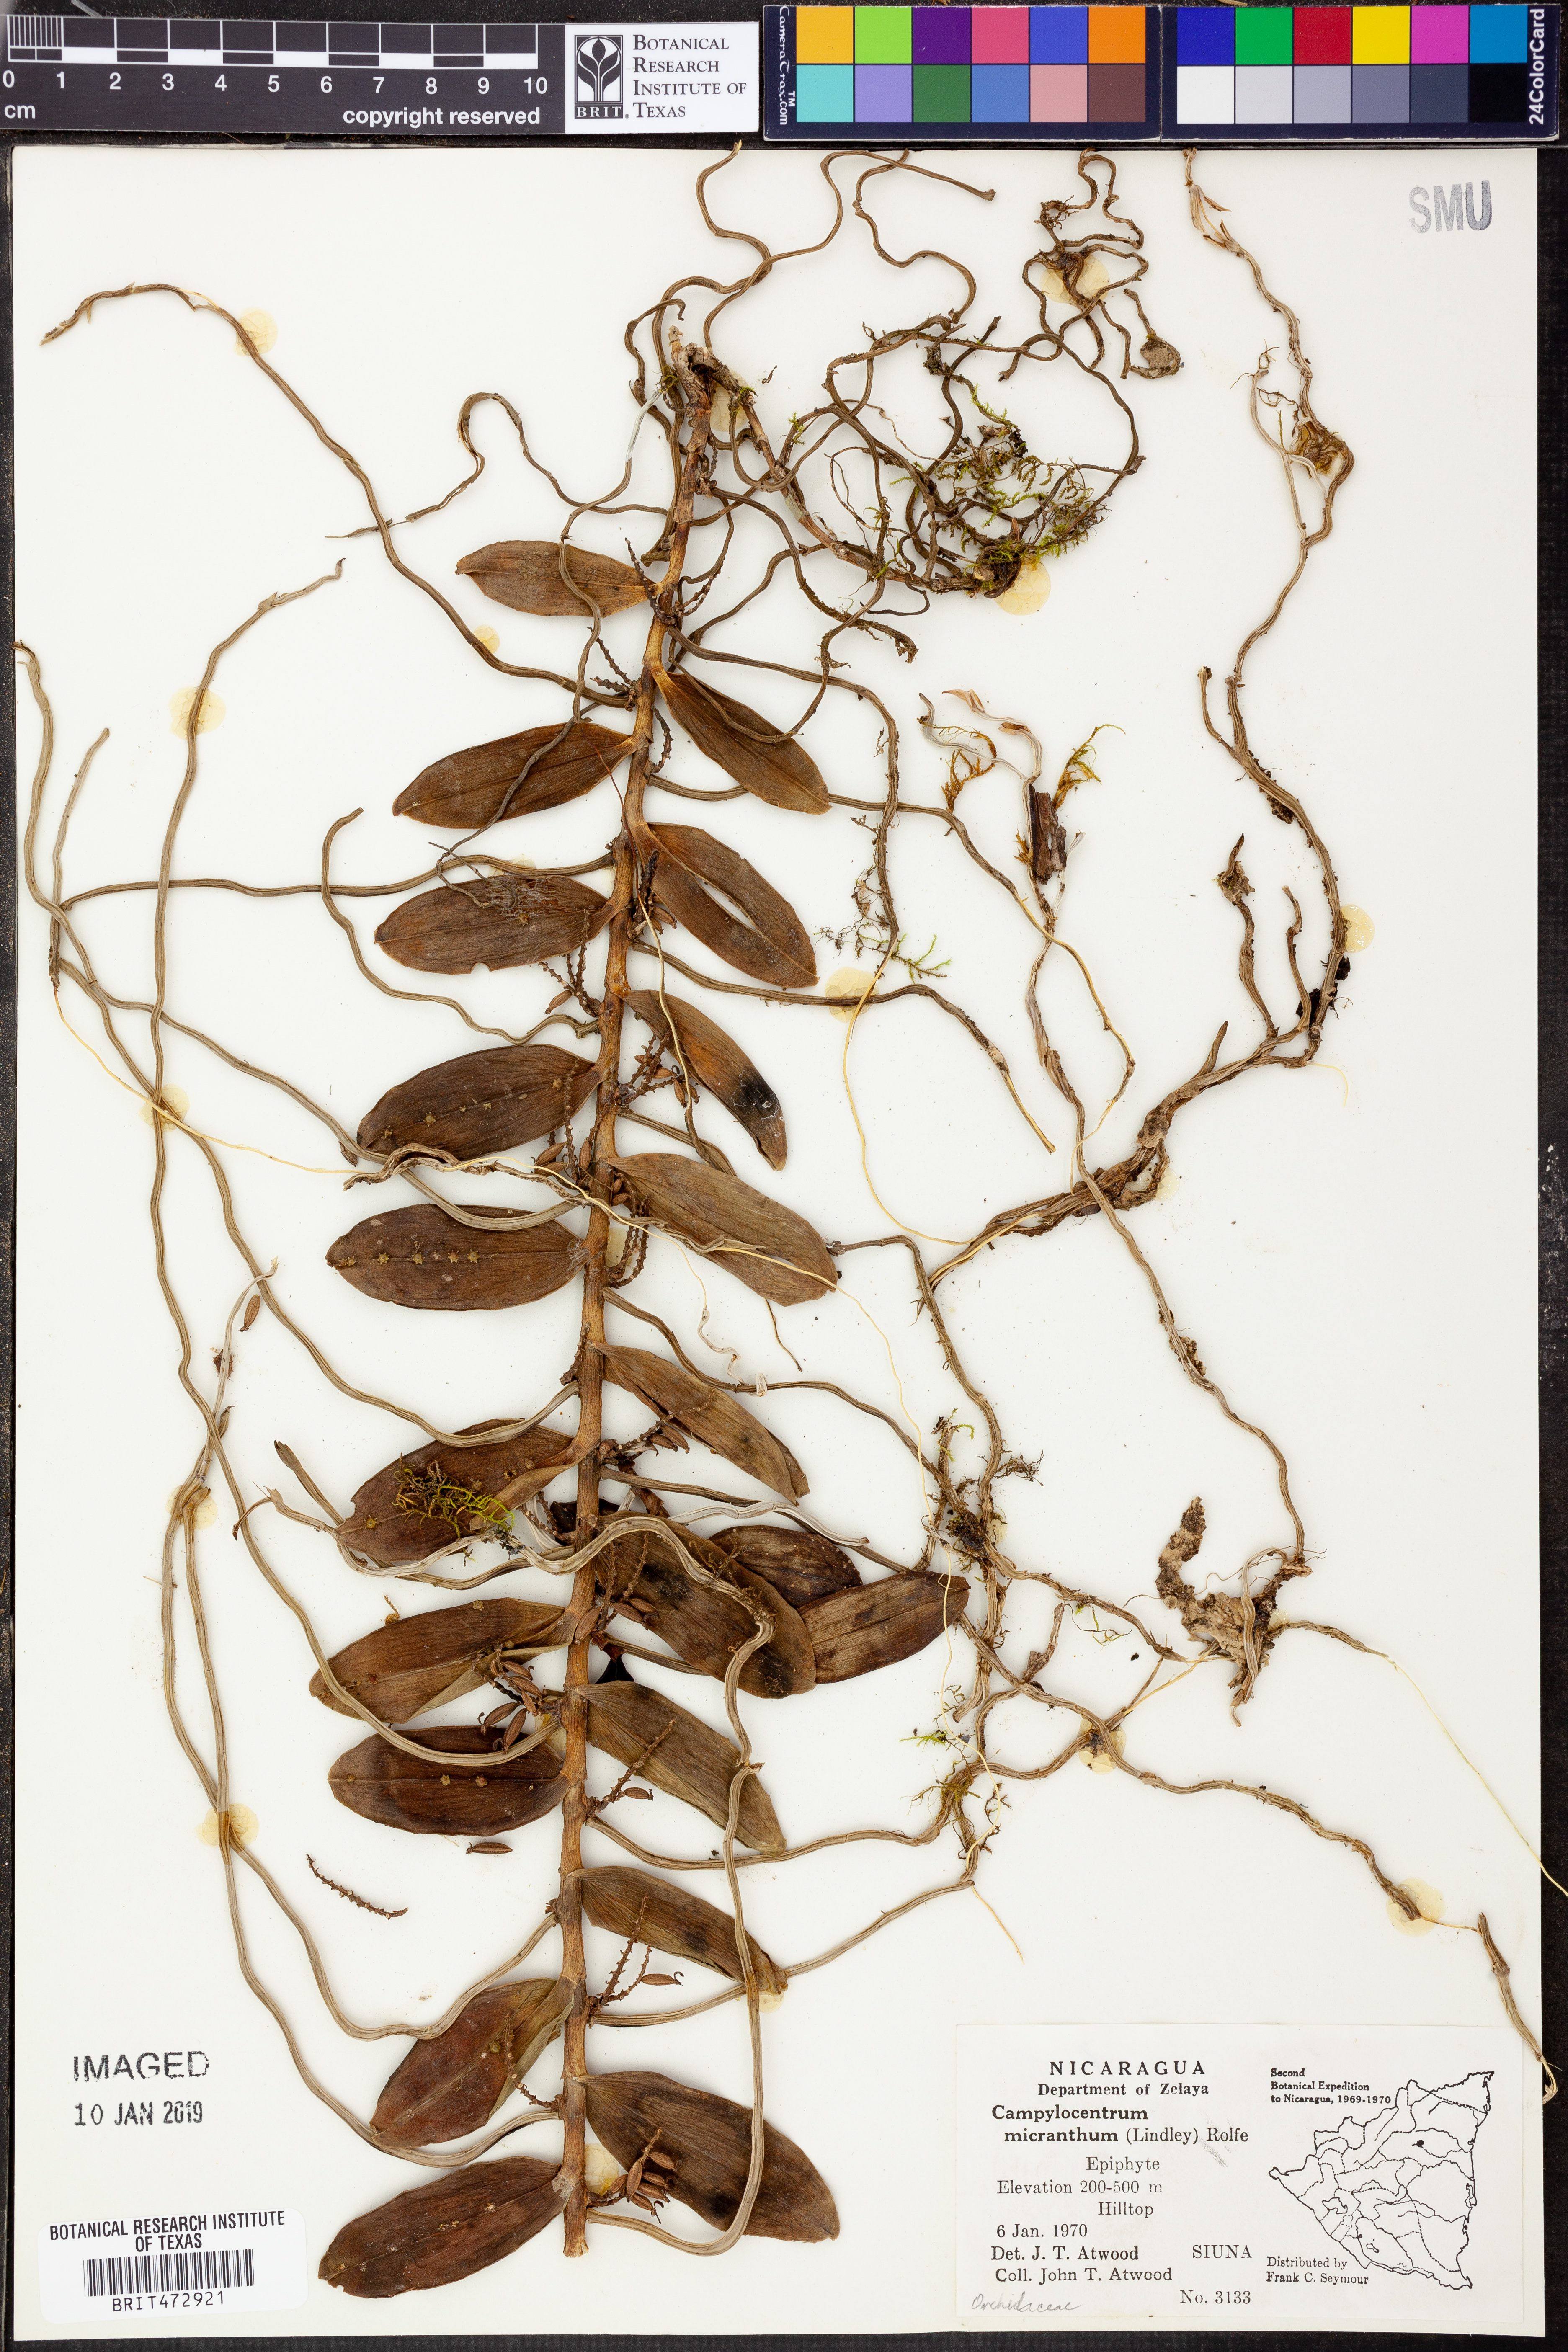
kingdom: Plantae
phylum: Tracheophyta
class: Liliopsida
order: Asparagales
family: Orchidaceae
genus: Campylocentrum
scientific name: Campylocentrum micranthum
